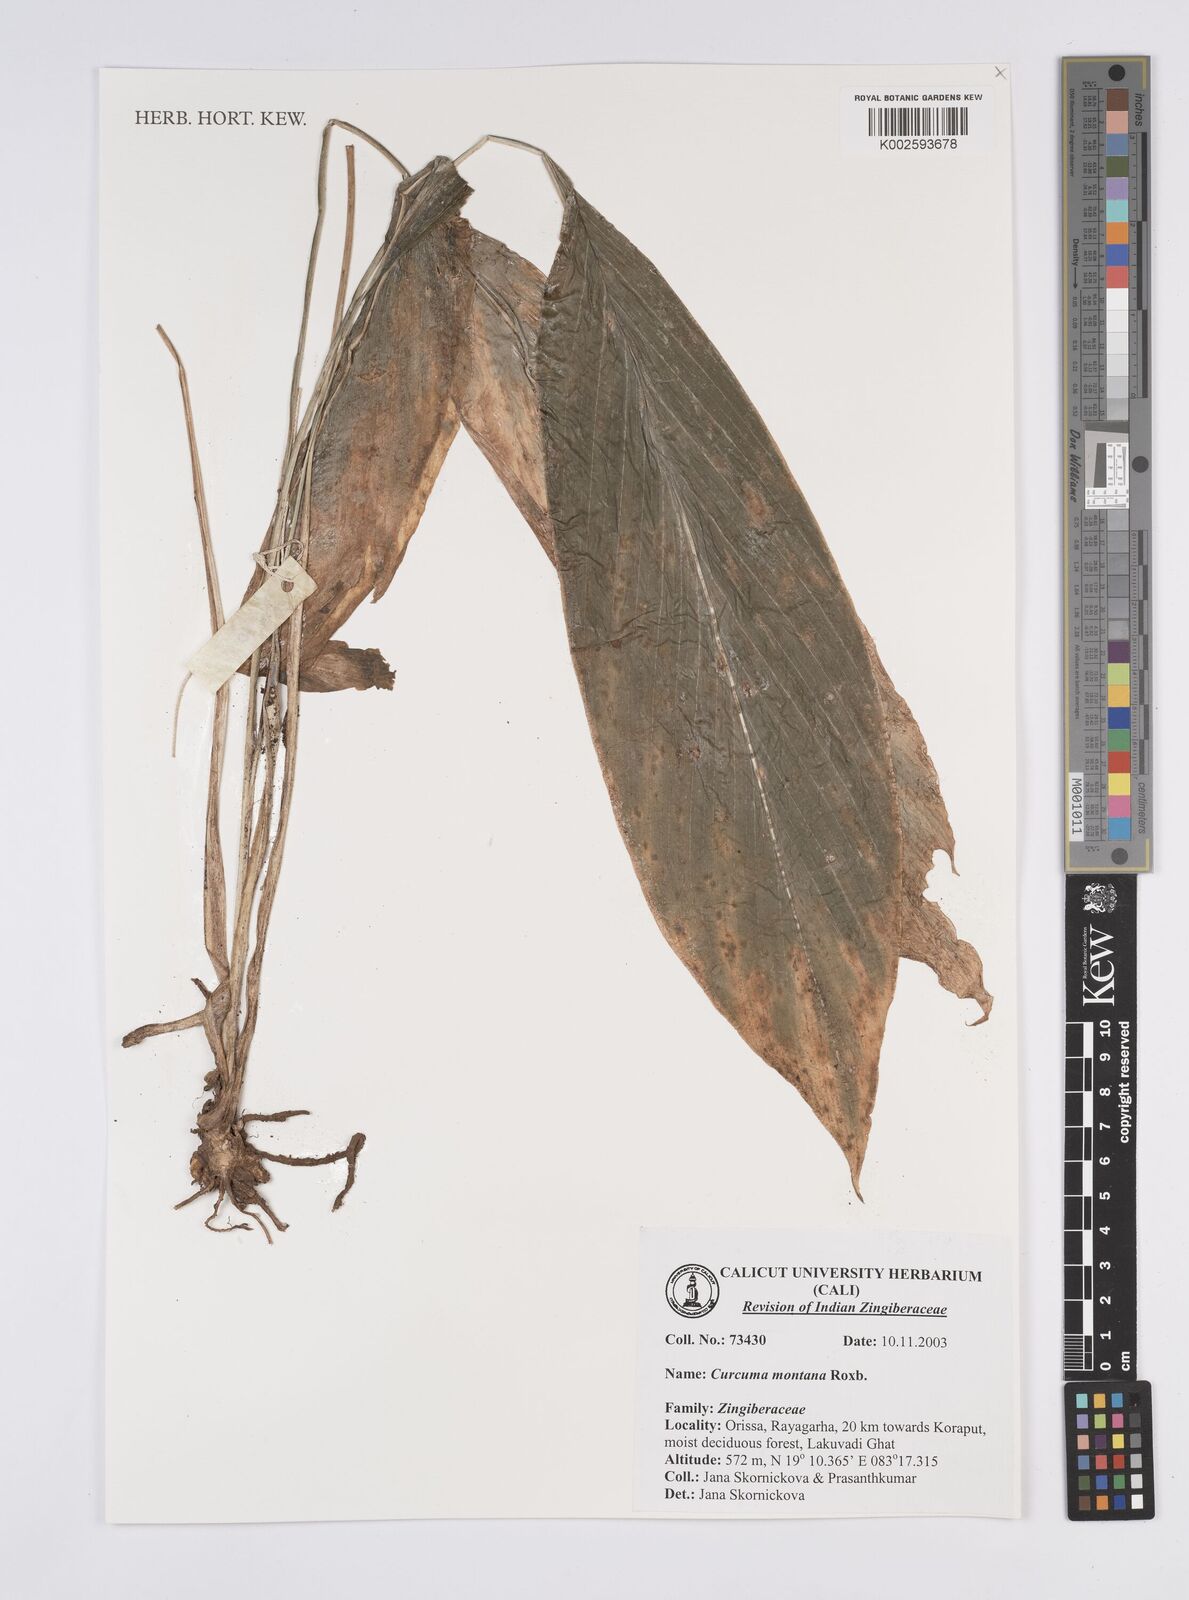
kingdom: Plantae
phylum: Tracheophyta
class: Liliopsida
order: Zingiberales
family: Zingiberaceae
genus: Curcuma
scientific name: Curcuma montana
